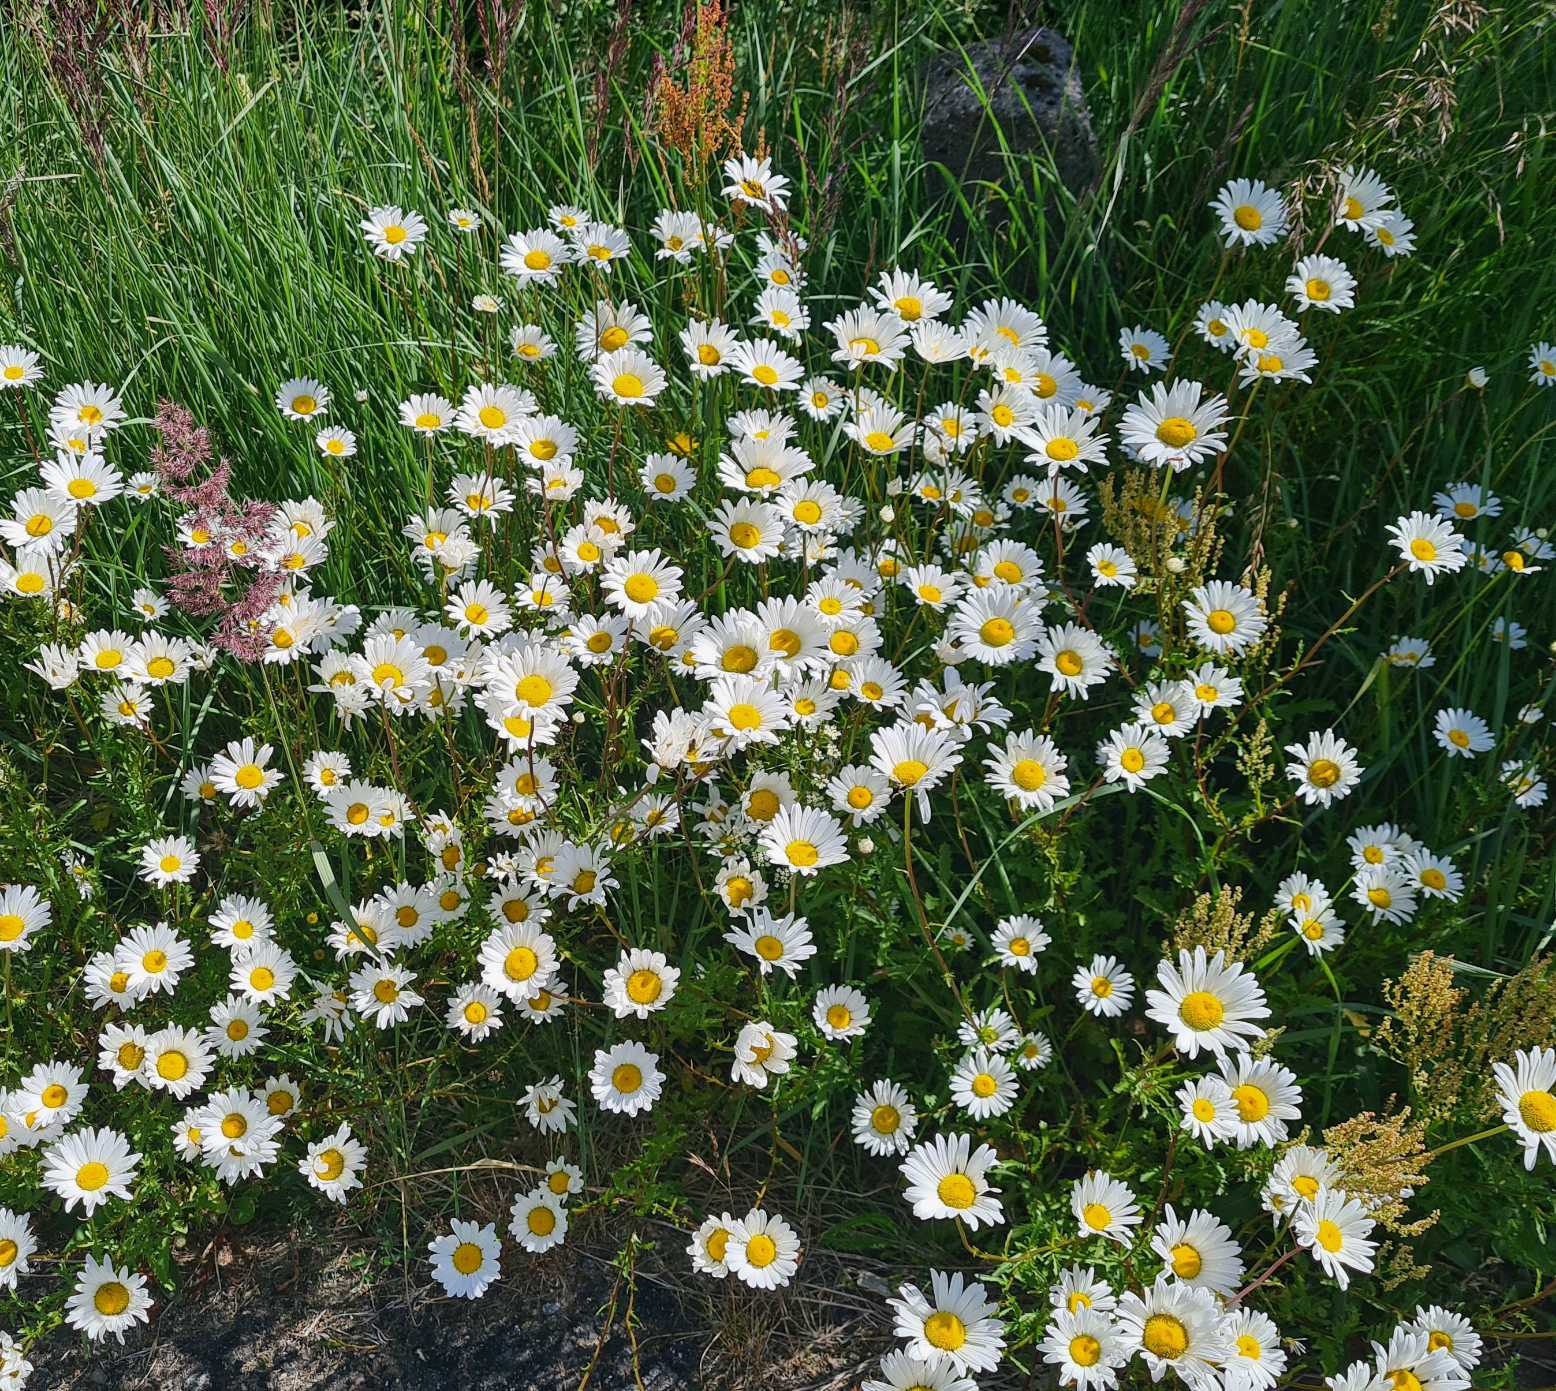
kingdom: Plantae
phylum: Tracheophyta
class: Magnoliopsida
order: Asterales
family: Asteraceae
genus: Leucanthemum
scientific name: Leucanthemum vulgare
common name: Hvid okseøje
